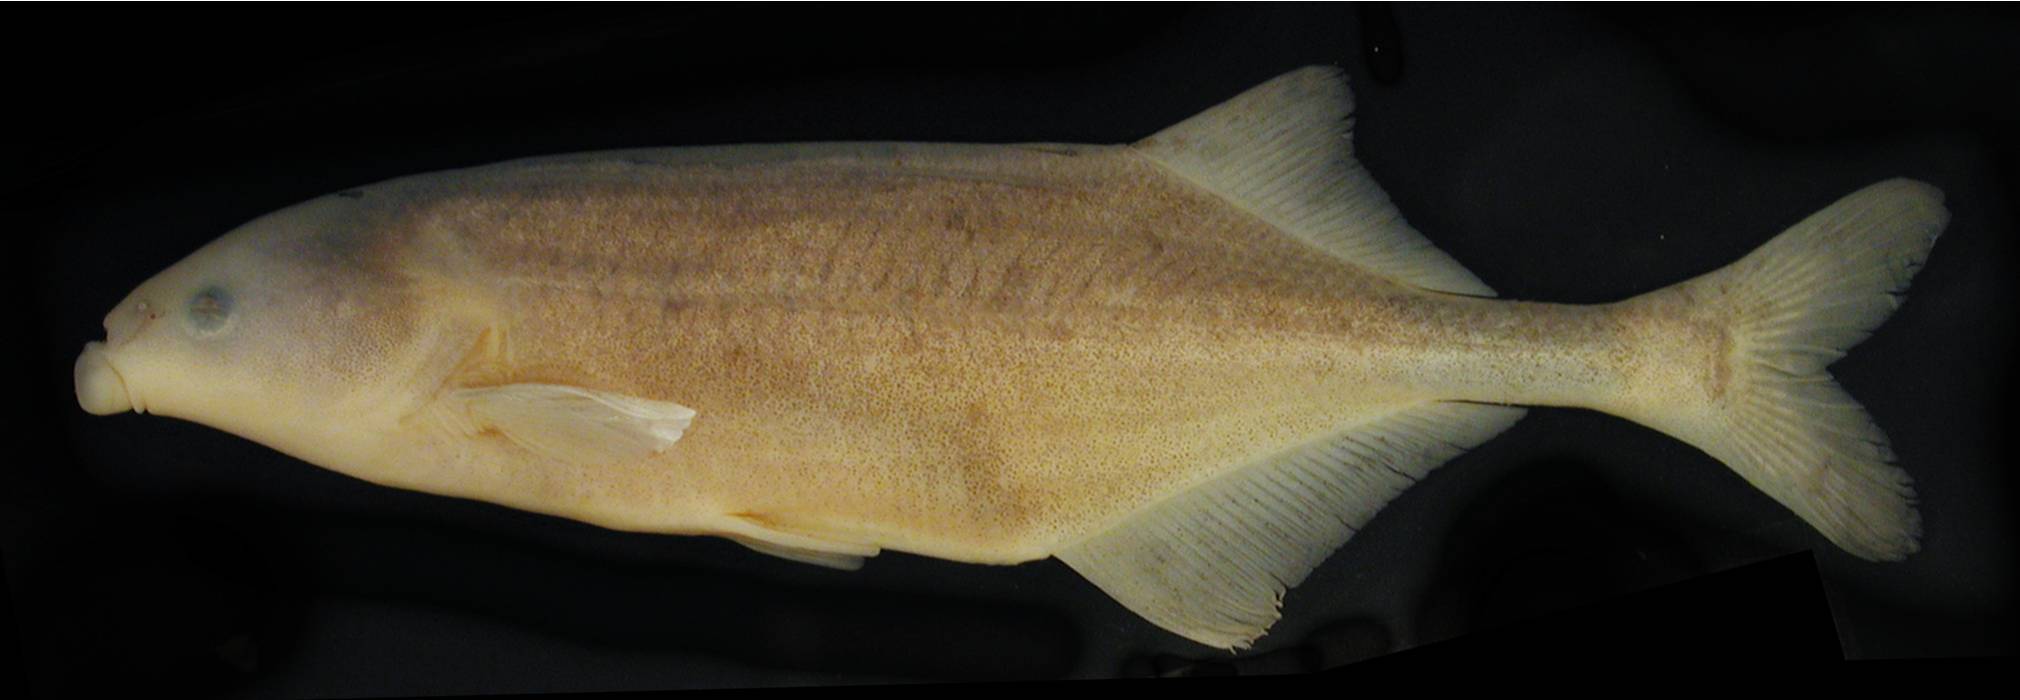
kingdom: Animalia
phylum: Chordata
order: Osteoglossiformes
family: Mormyridae
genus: Marcusenius
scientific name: Marcusenius lucombesi
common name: Bulldog
